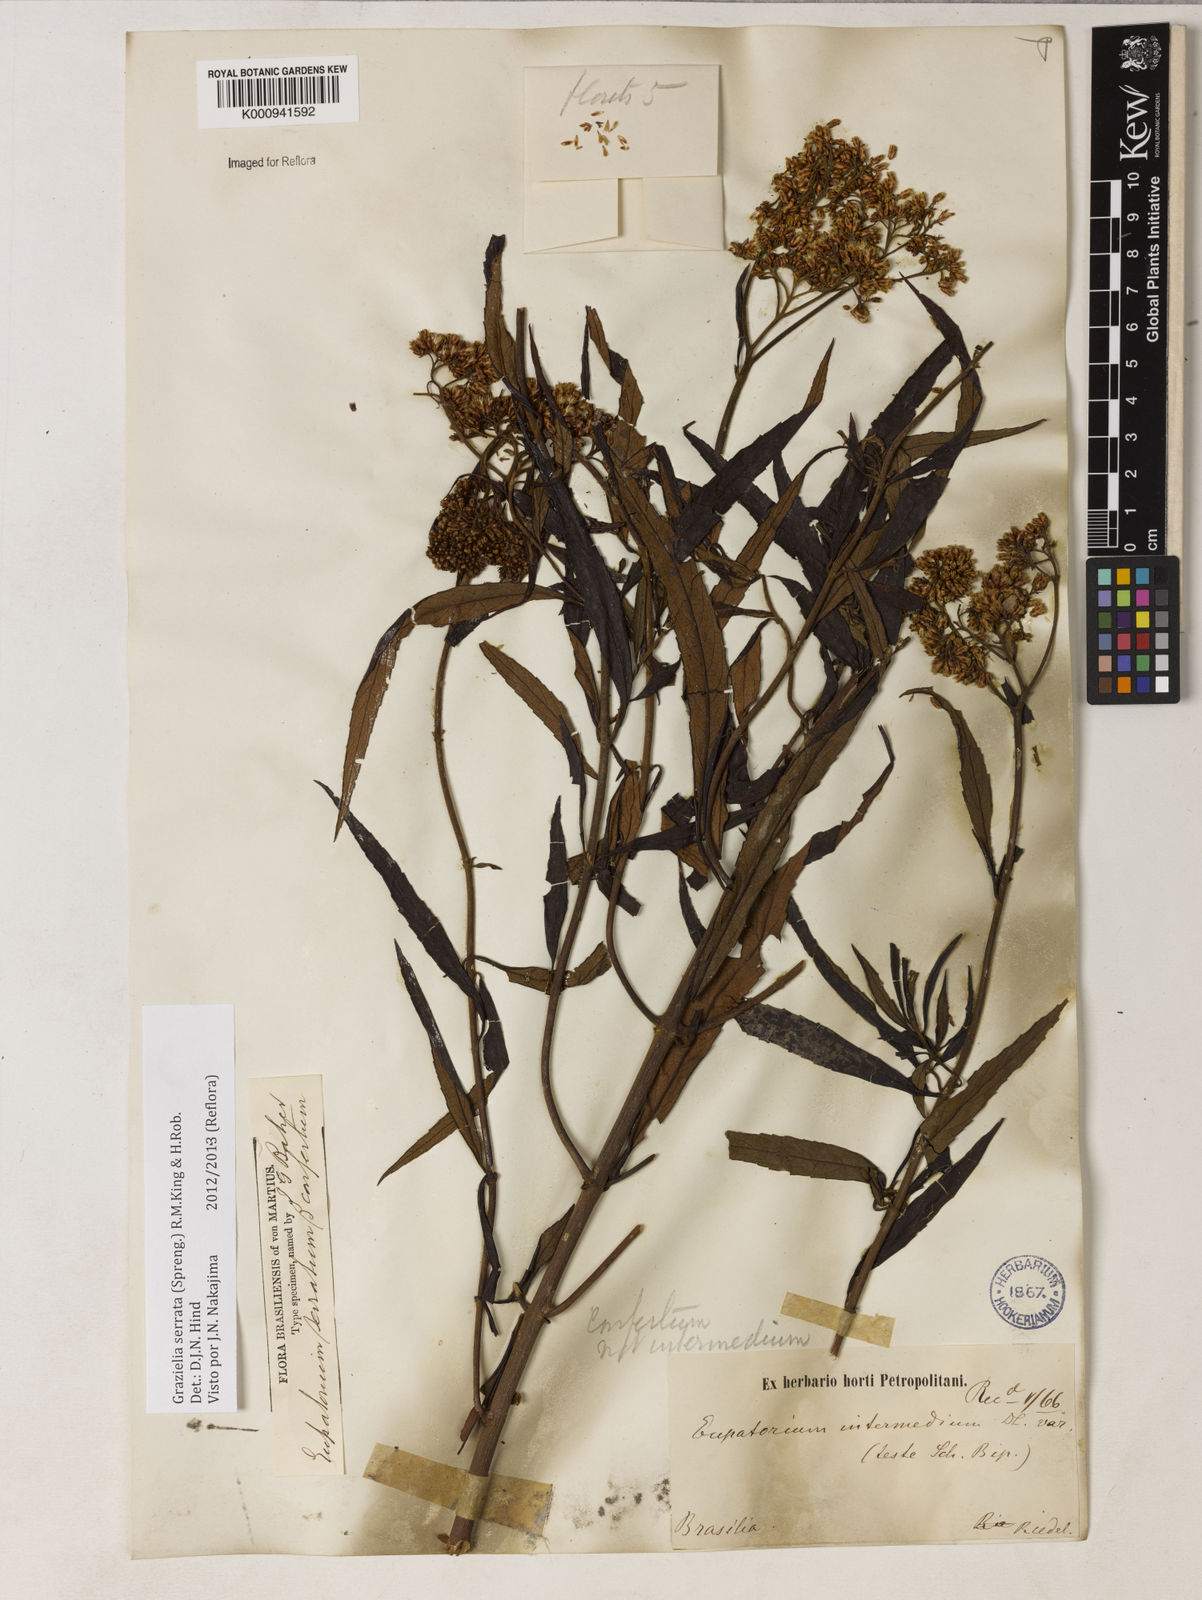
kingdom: Plantae
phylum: Tracheophyta
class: Magnoliopsida
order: Asterales
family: Asteraceae
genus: Grazielia
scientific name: Grazielia serrata
